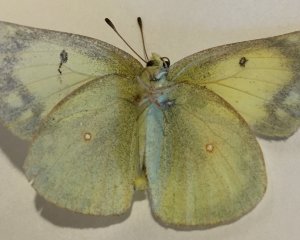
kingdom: Animalia
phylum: Arthropoda
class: Insecta
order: Lepidoptera
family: Pieridae
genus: Colias
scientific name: Colias philodice
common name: Clouded Sulphur
